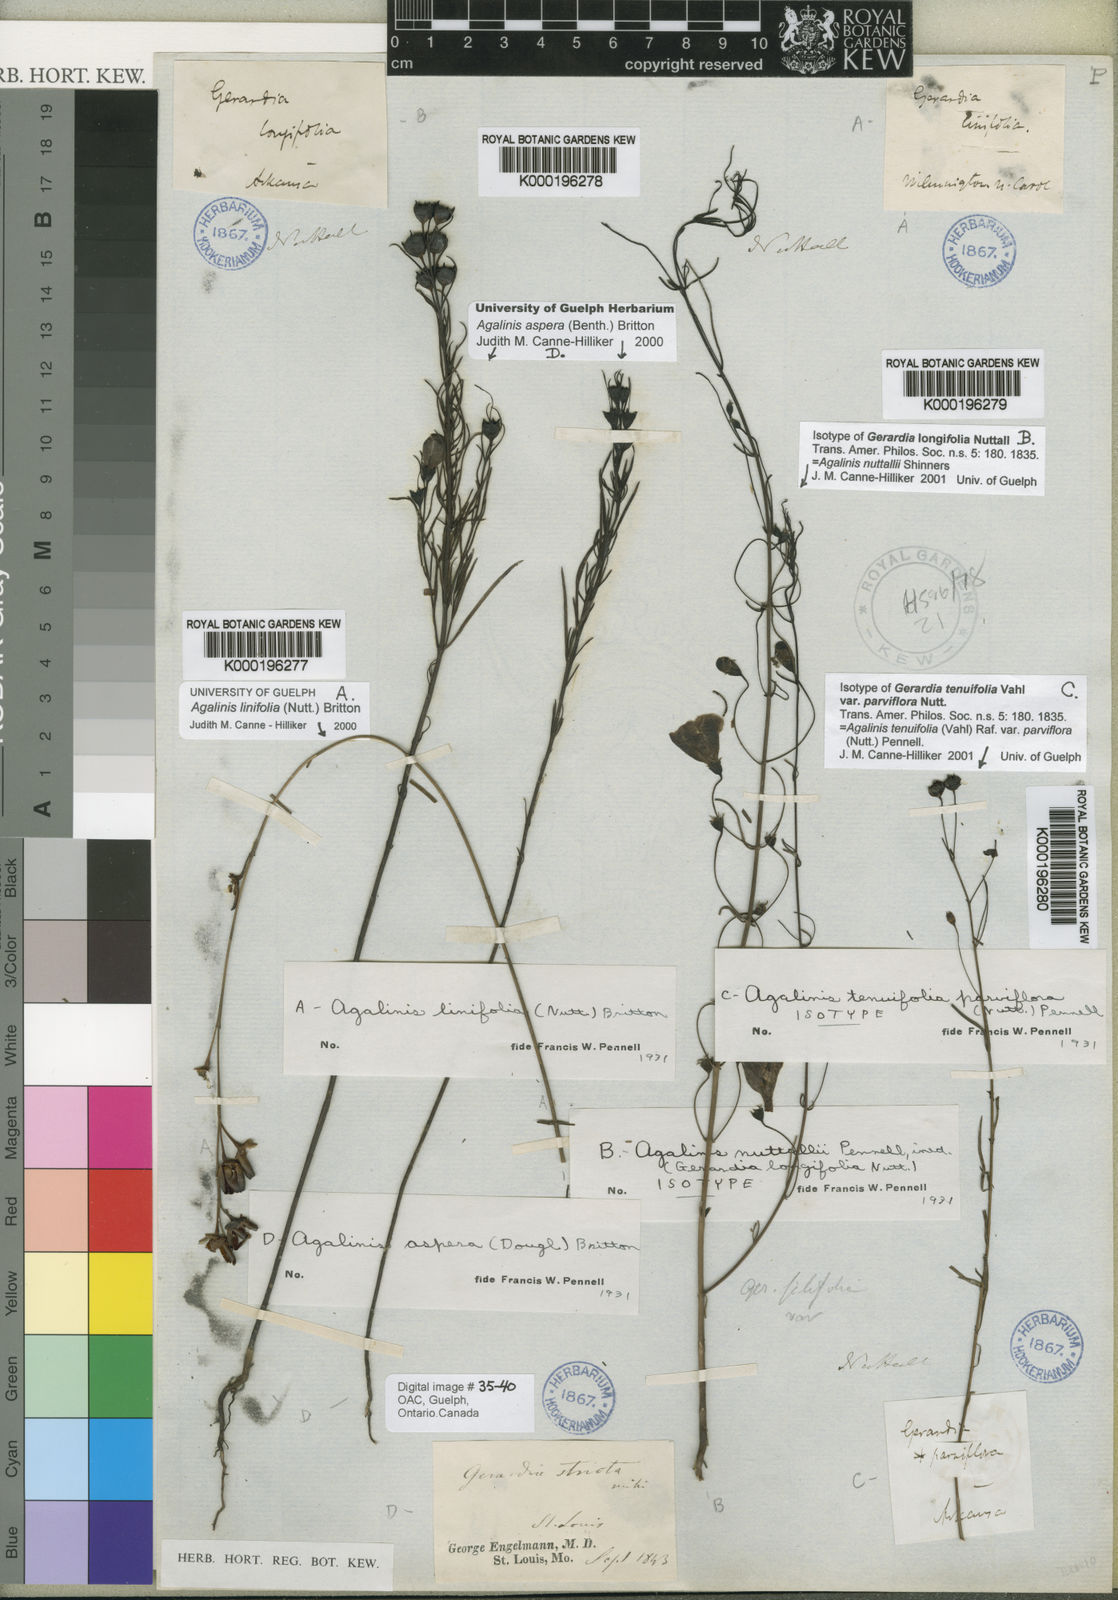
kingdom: Plantae
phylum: Tracheophyta
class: Magnoliopsida
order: Lamiales
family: Orobanchaceae
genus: Agalinis
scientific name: Agalinis homalantha
